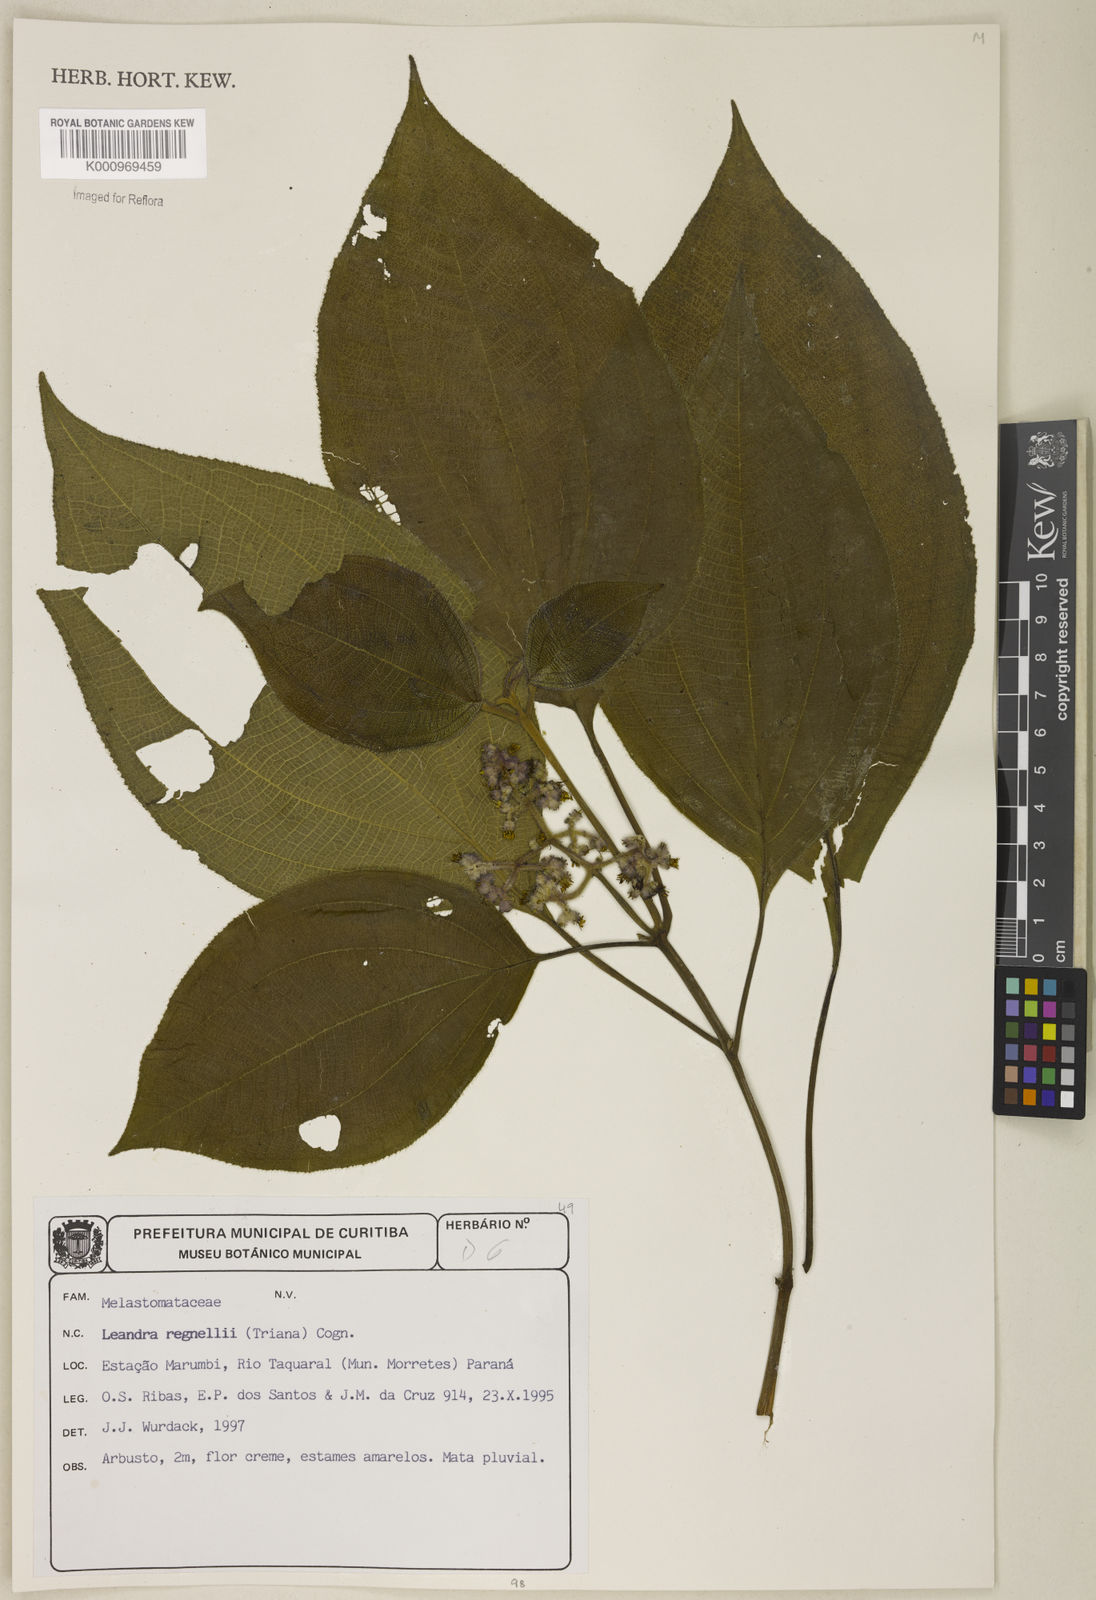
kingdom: Plantae
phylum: Tracheophyta
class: Magnoliopsida
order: Myrtales
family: Melastomataceae
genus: Miconia
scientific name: Miconia alterninervia
